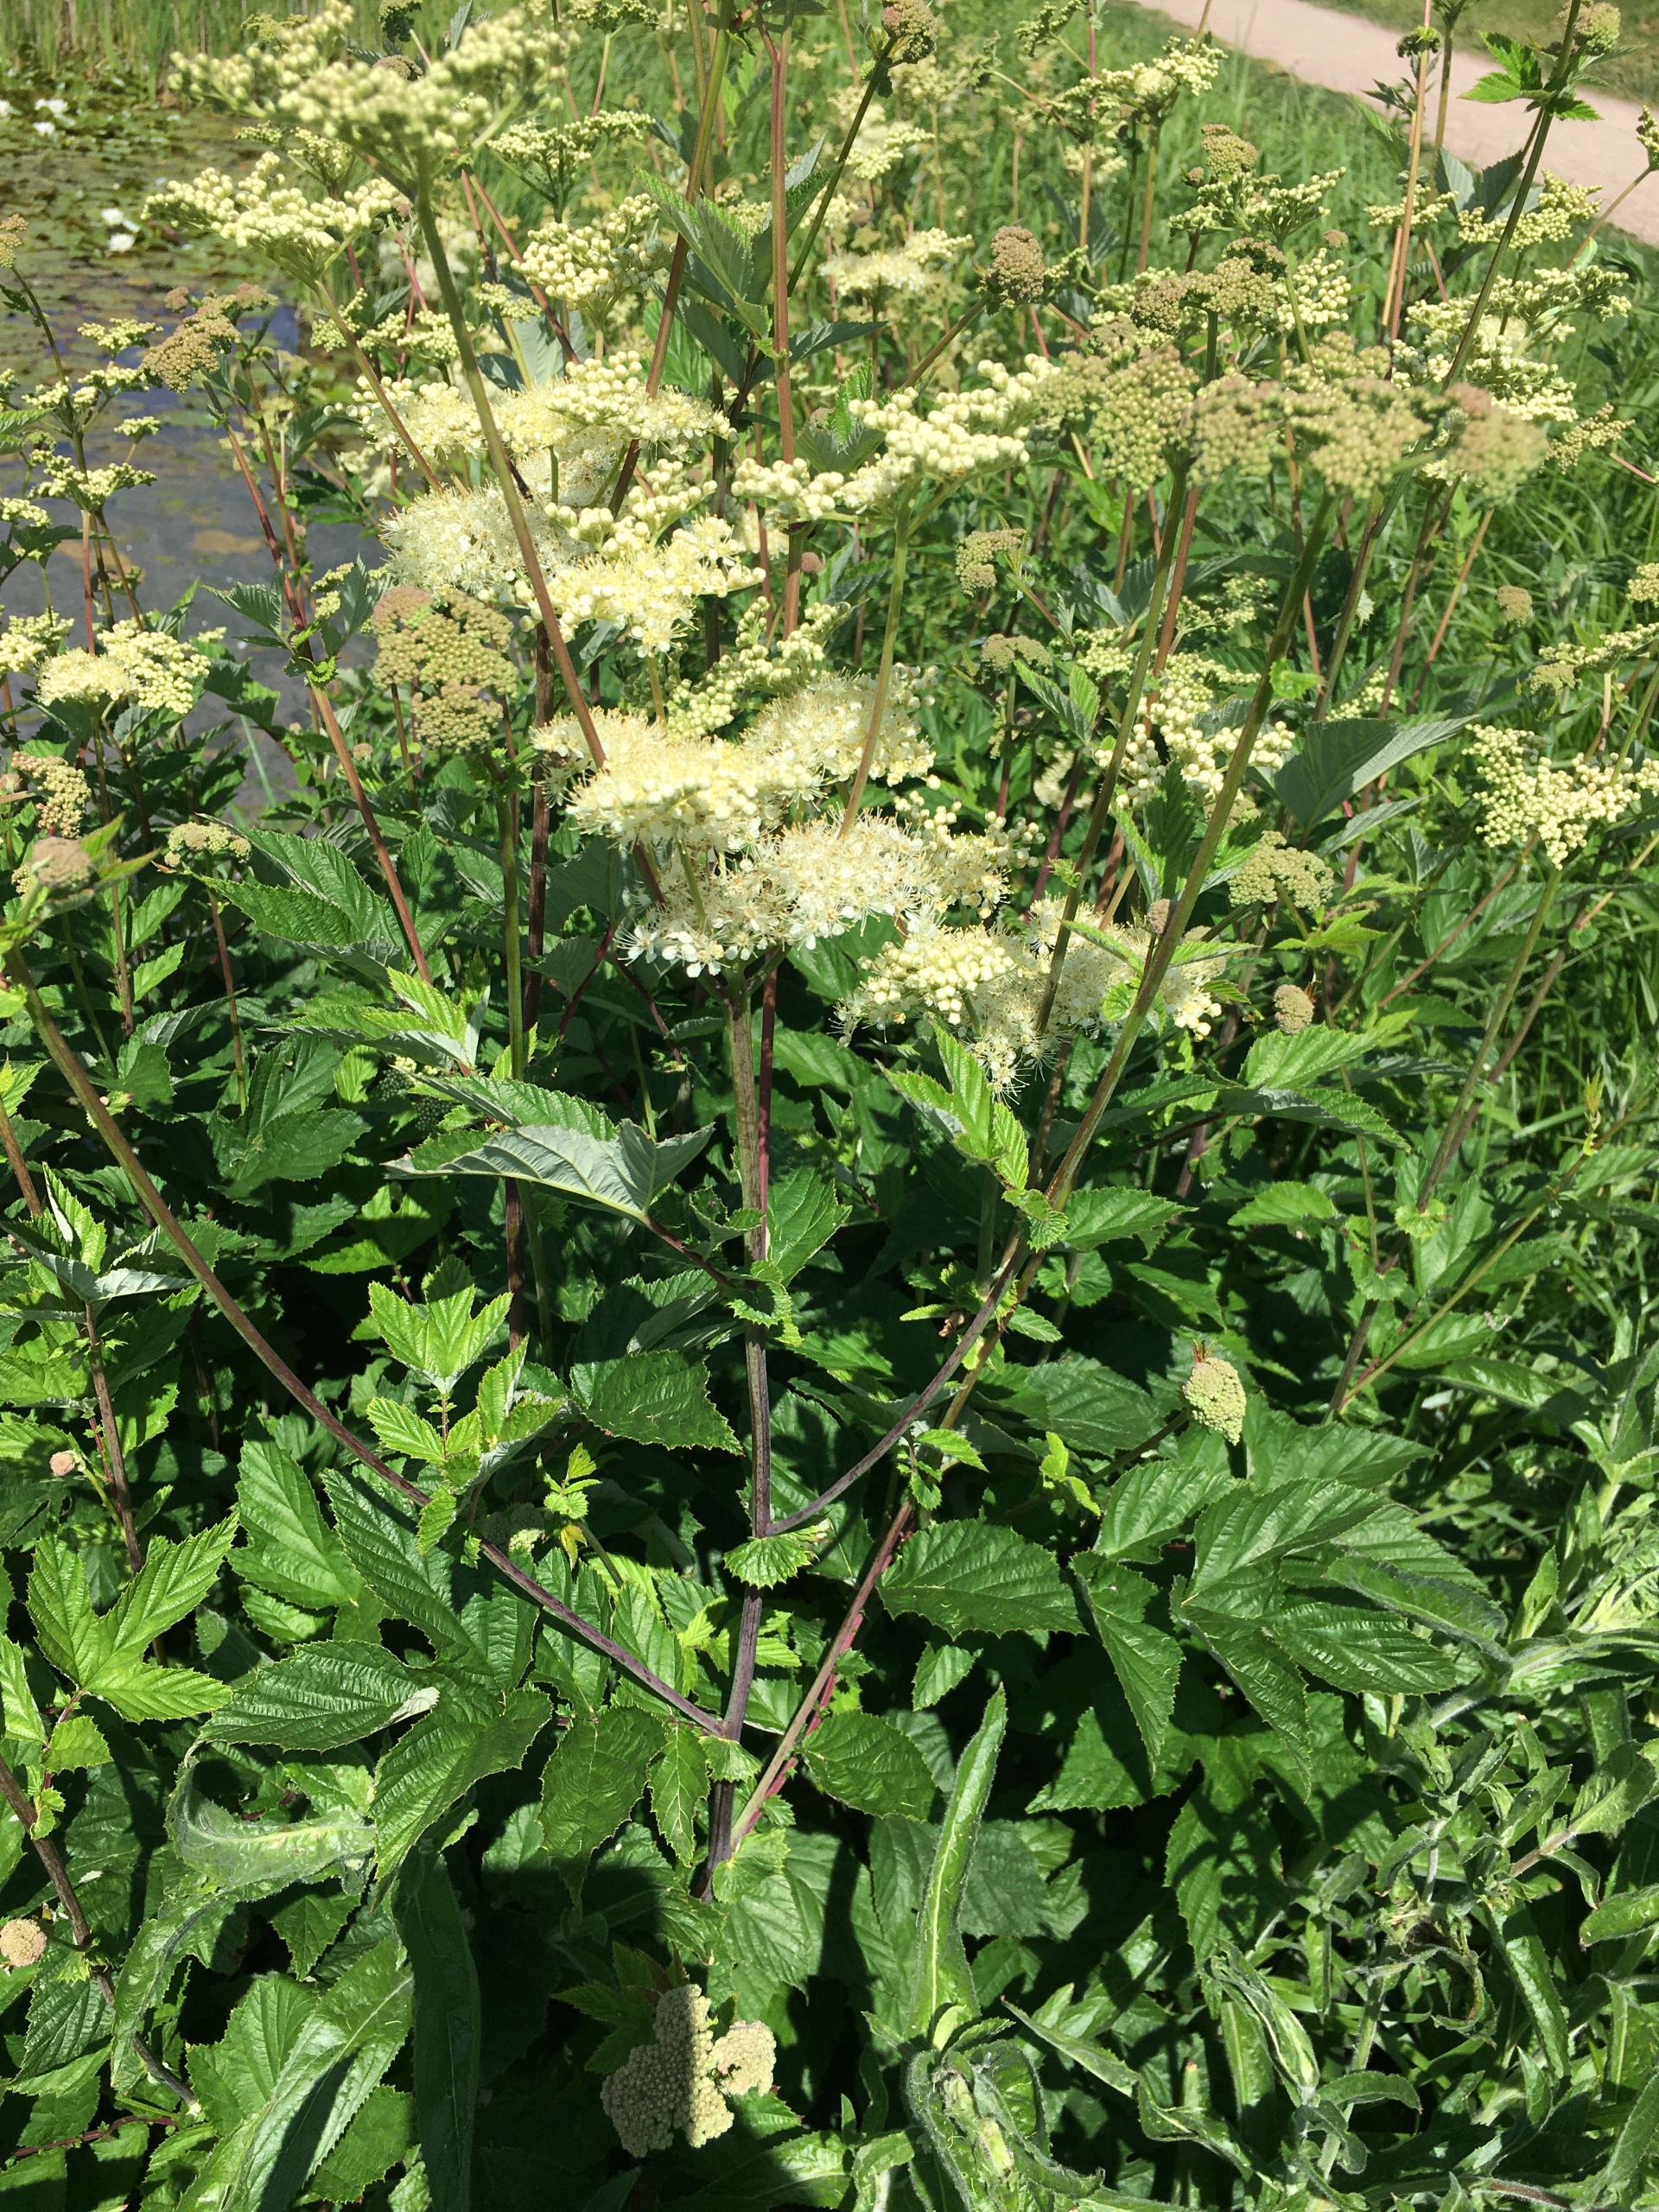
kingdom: Plantae
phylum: Tracheophyta
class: Magnoliopsida
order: Rosales
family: Rosaceae
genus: Filipendula
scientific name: Filipendula ulmaria
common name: Almindelig mjødurt
